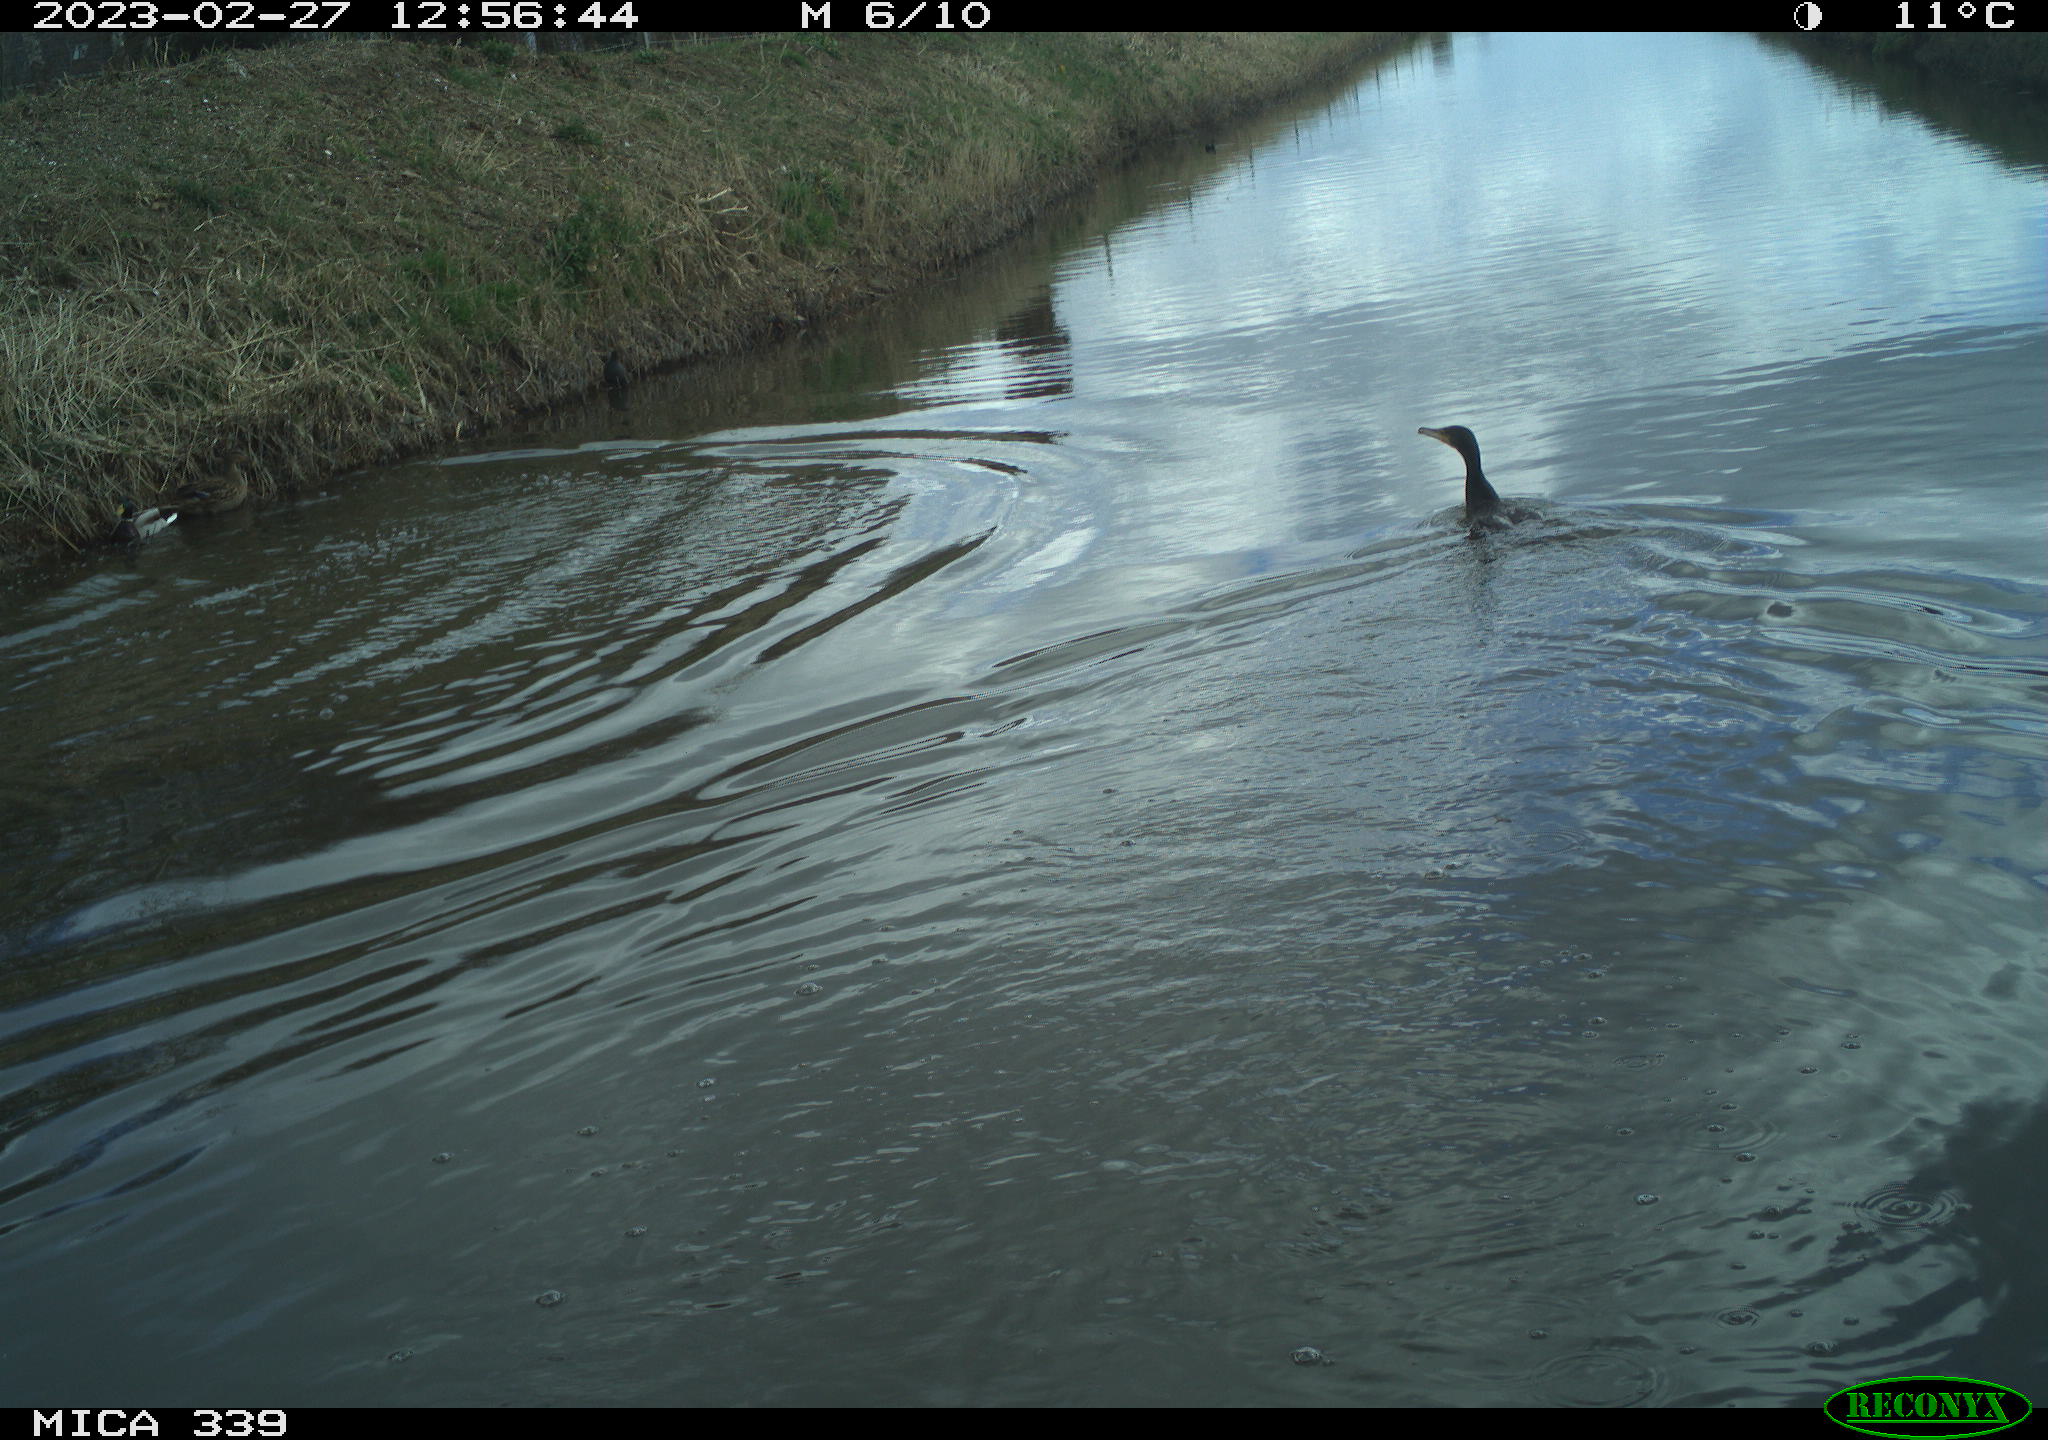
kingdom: Animalia
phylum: Chordata
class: Aves
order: Anseriformes
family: Anatidae
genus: Anas
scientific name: Anas
